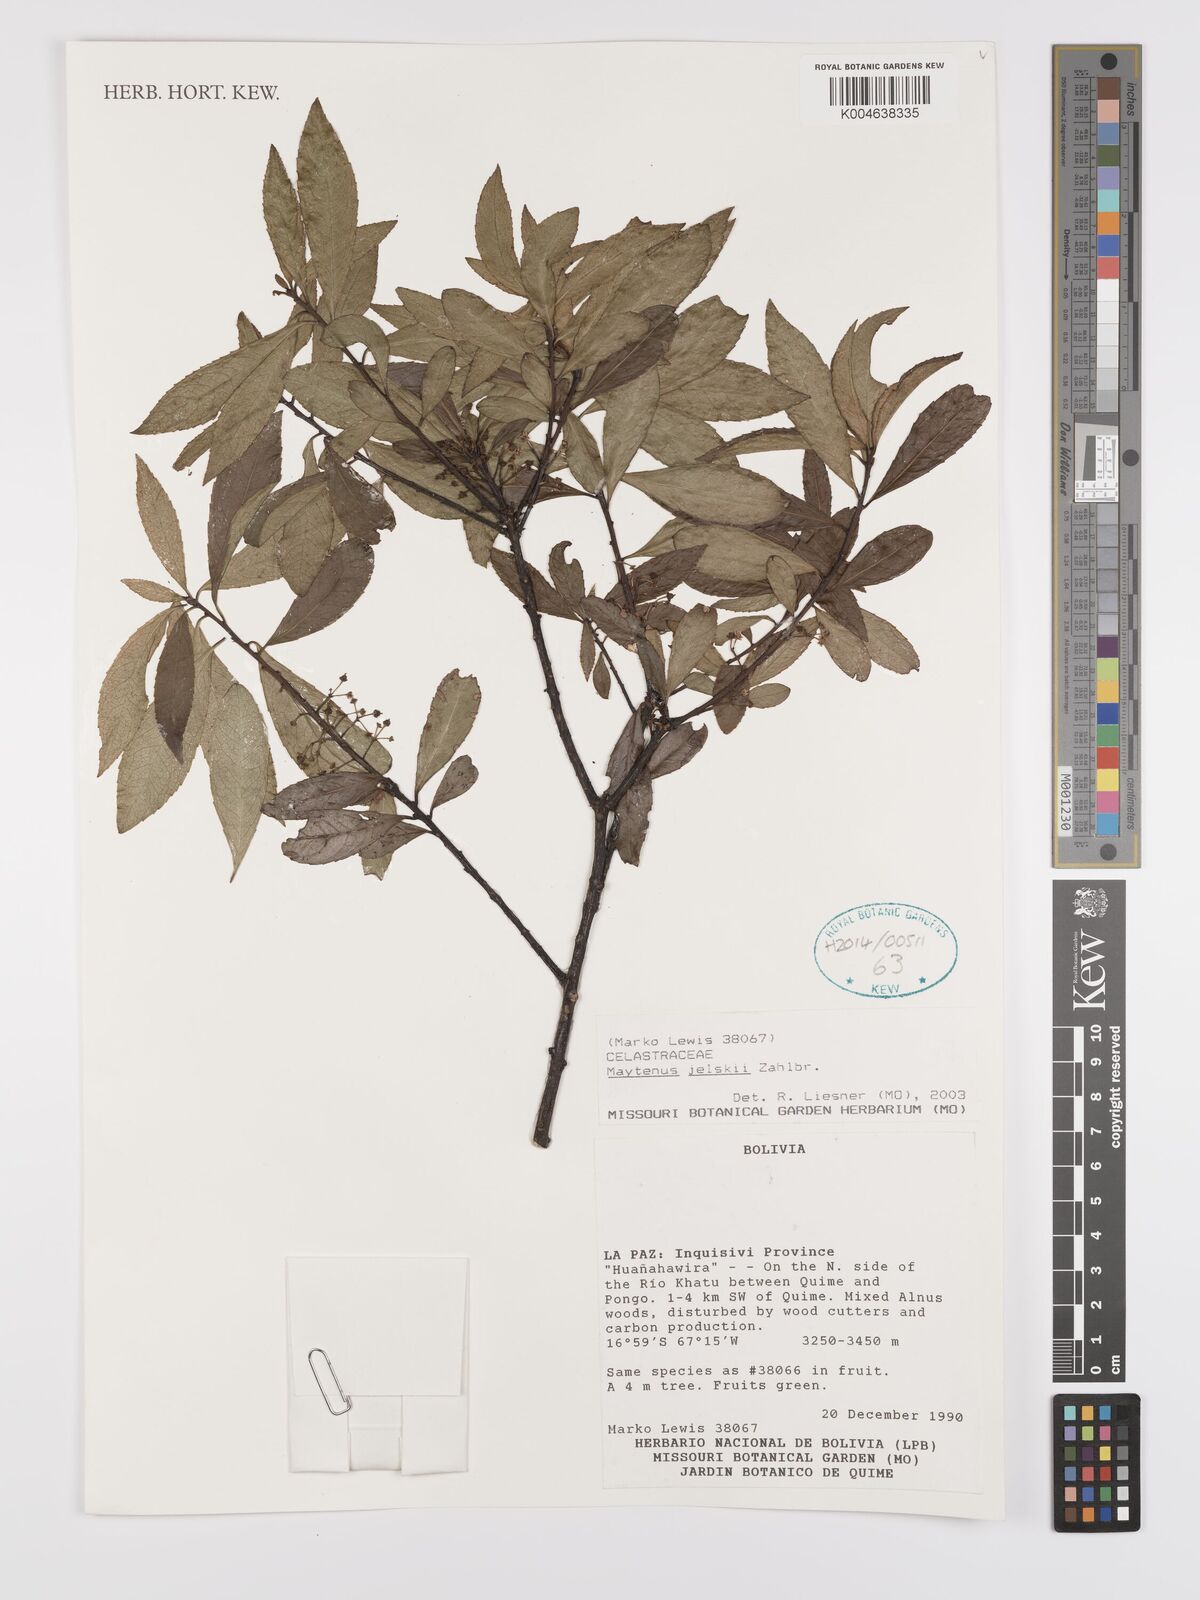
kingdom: Plantae
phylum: Tracheophyta
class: Magnoliopsida
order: Celastrales
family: Celastraceae
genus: Maytenus
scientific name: Maytenus
